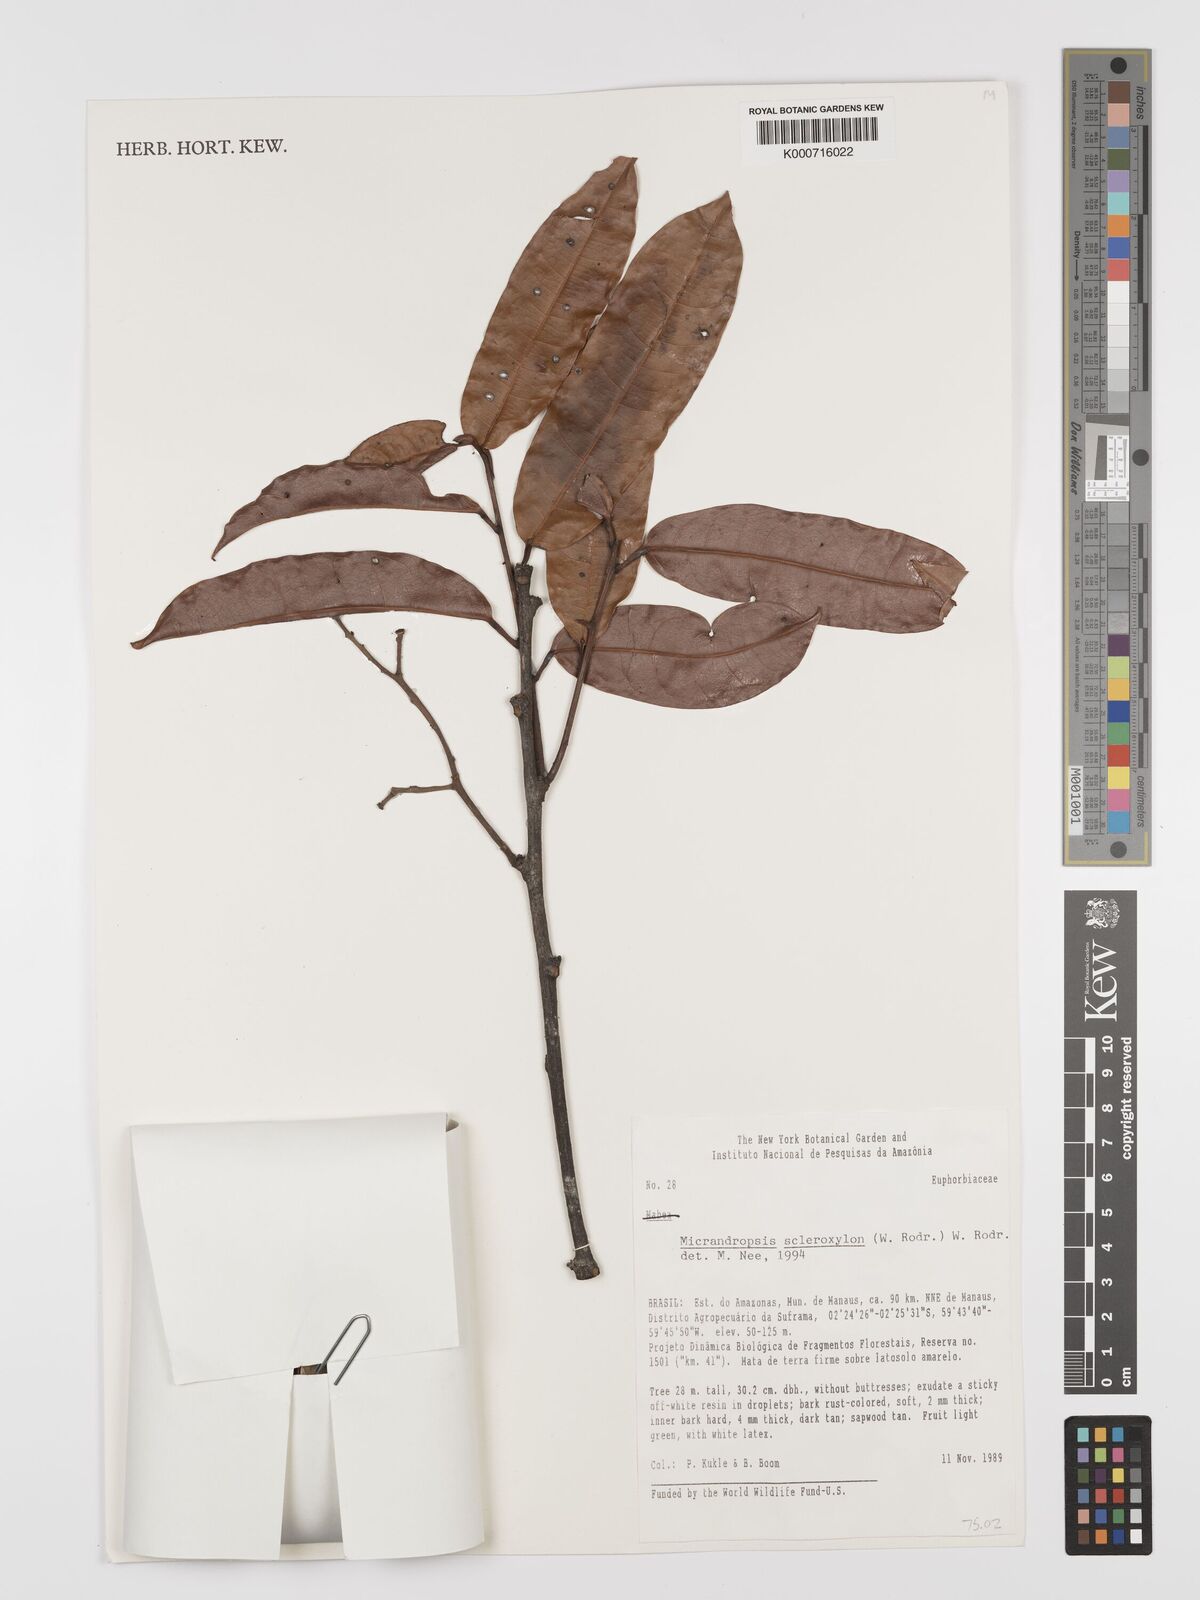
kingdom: Plantae
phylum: Tracheophyta
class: Magnoliopsida
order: Malpighiales
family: Euphorbiaceae
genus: Micrandropsis
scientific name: Micrandropsis scleroxylon
